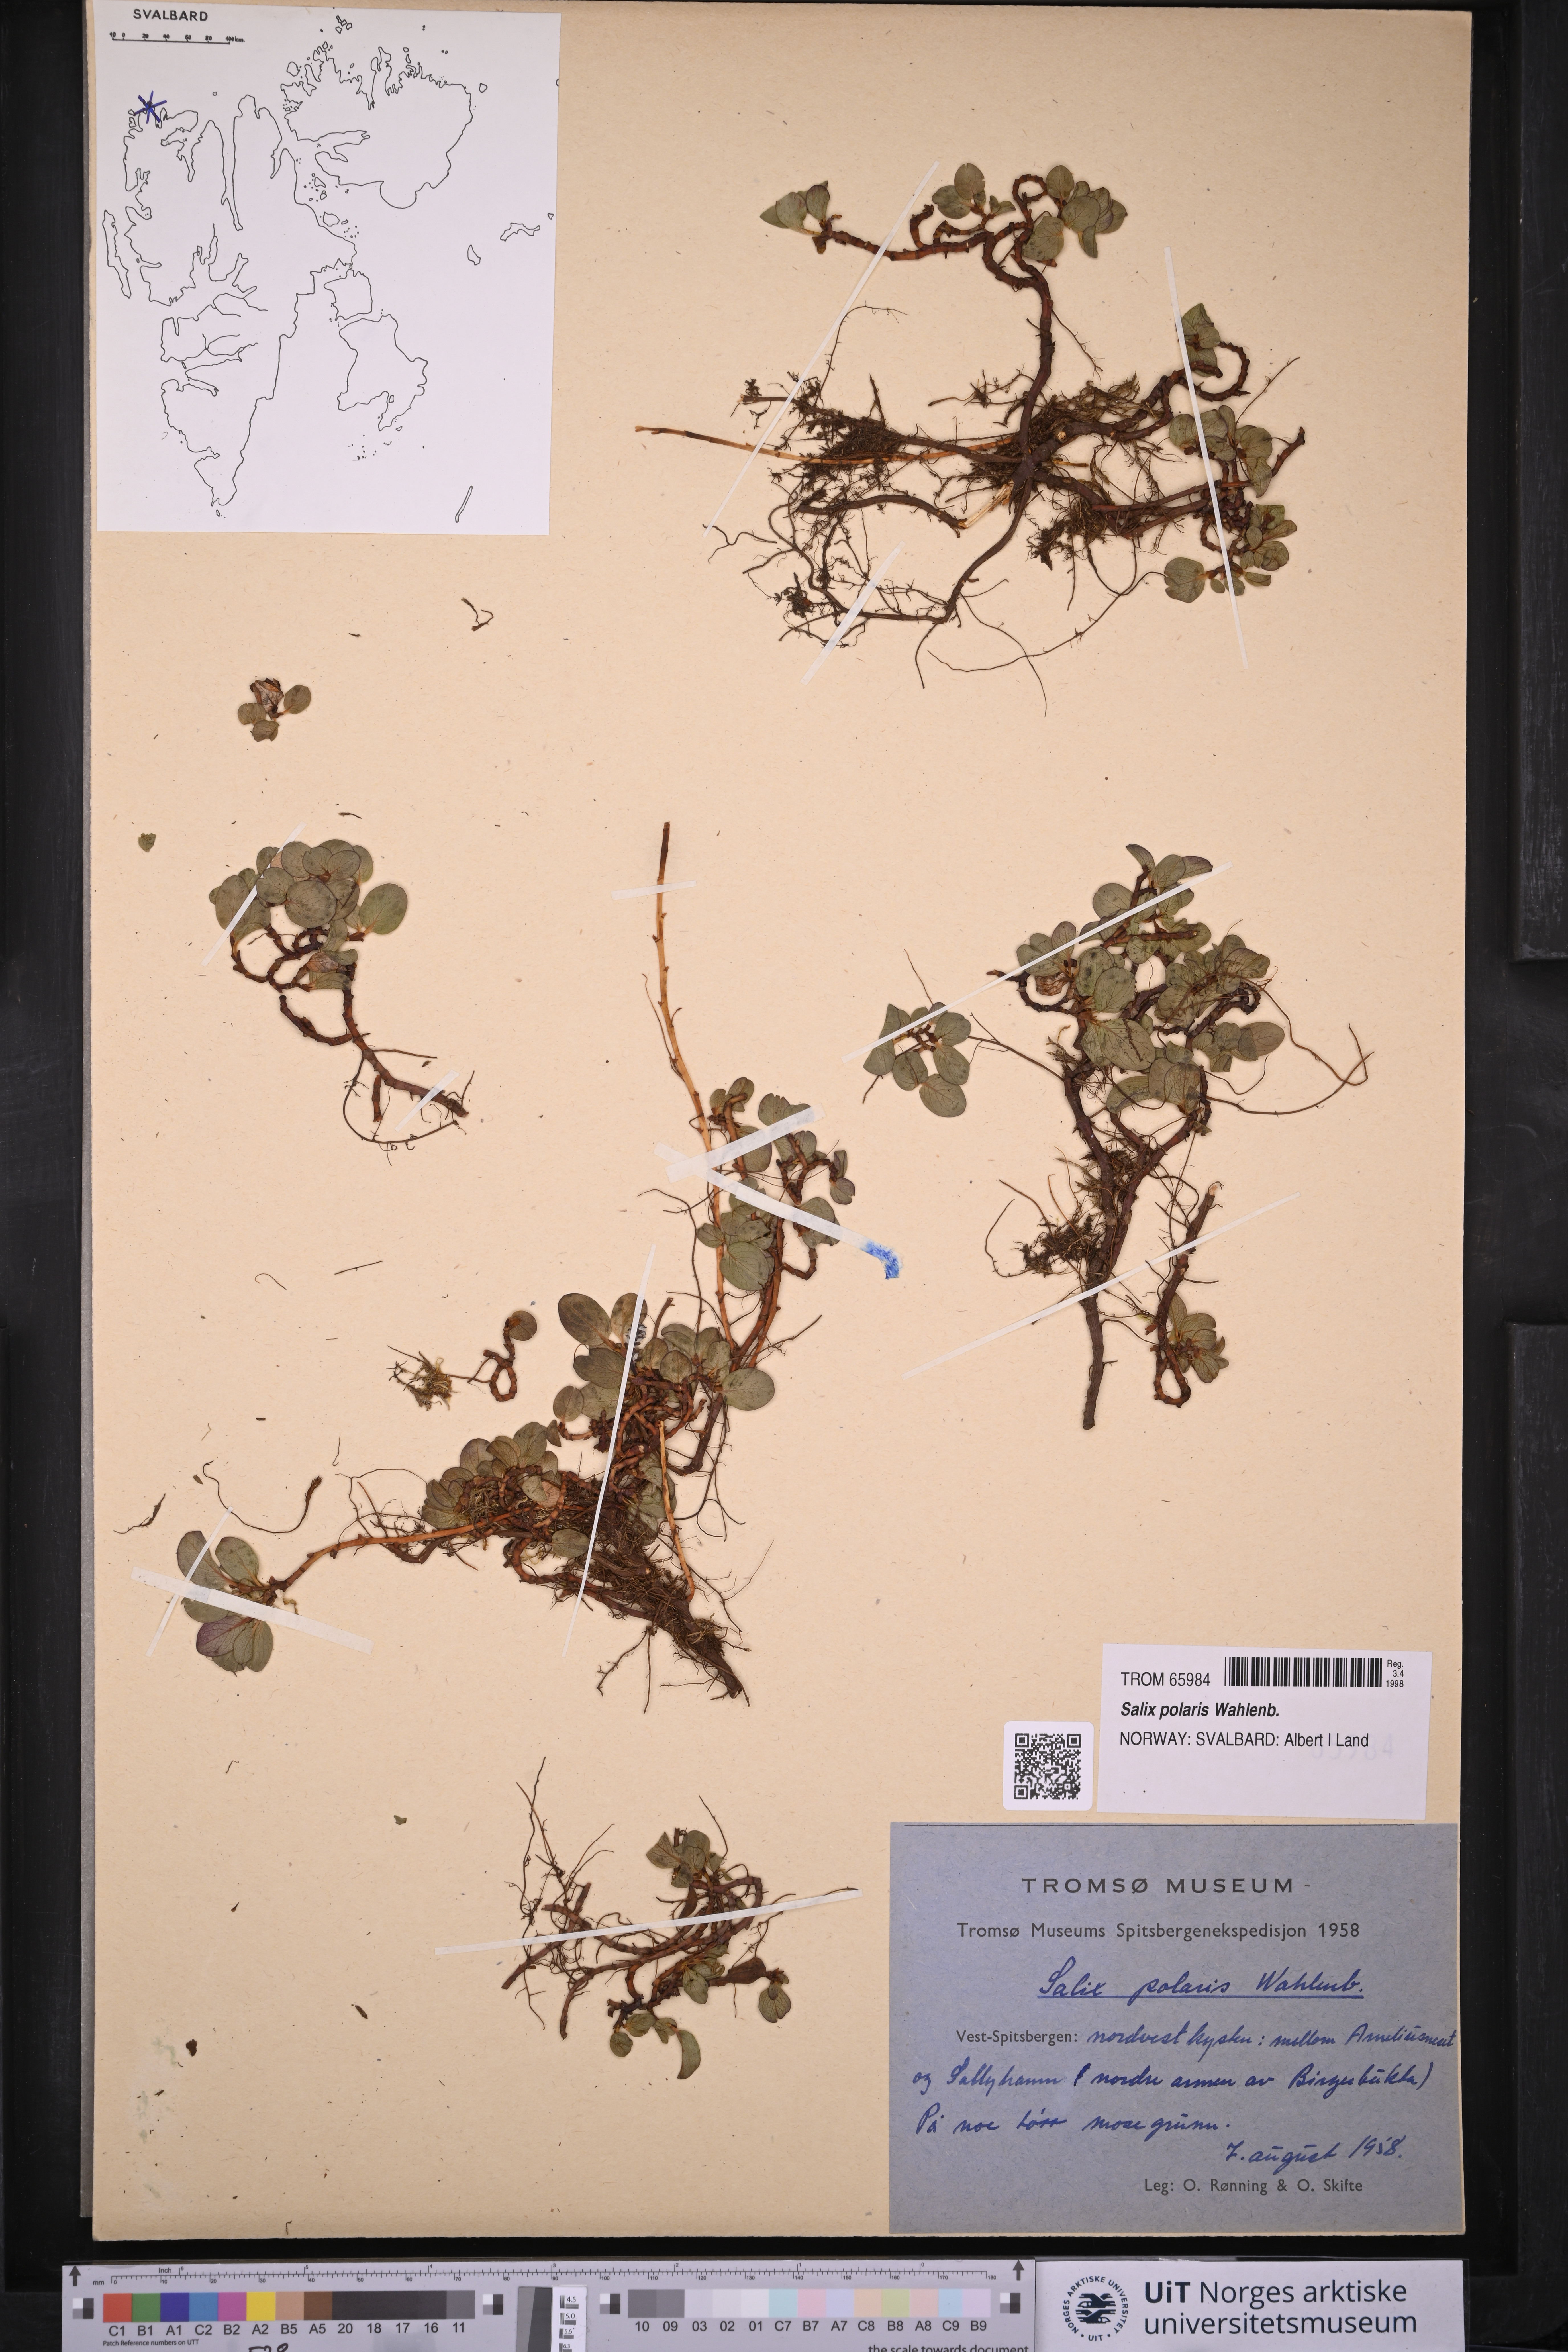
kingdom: Plantae
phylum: Tracheophyta
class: Magnoliopsida
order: Malpighiales
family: Salicaceae
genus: Salix
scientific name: Salix polaris
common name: Polar willow
